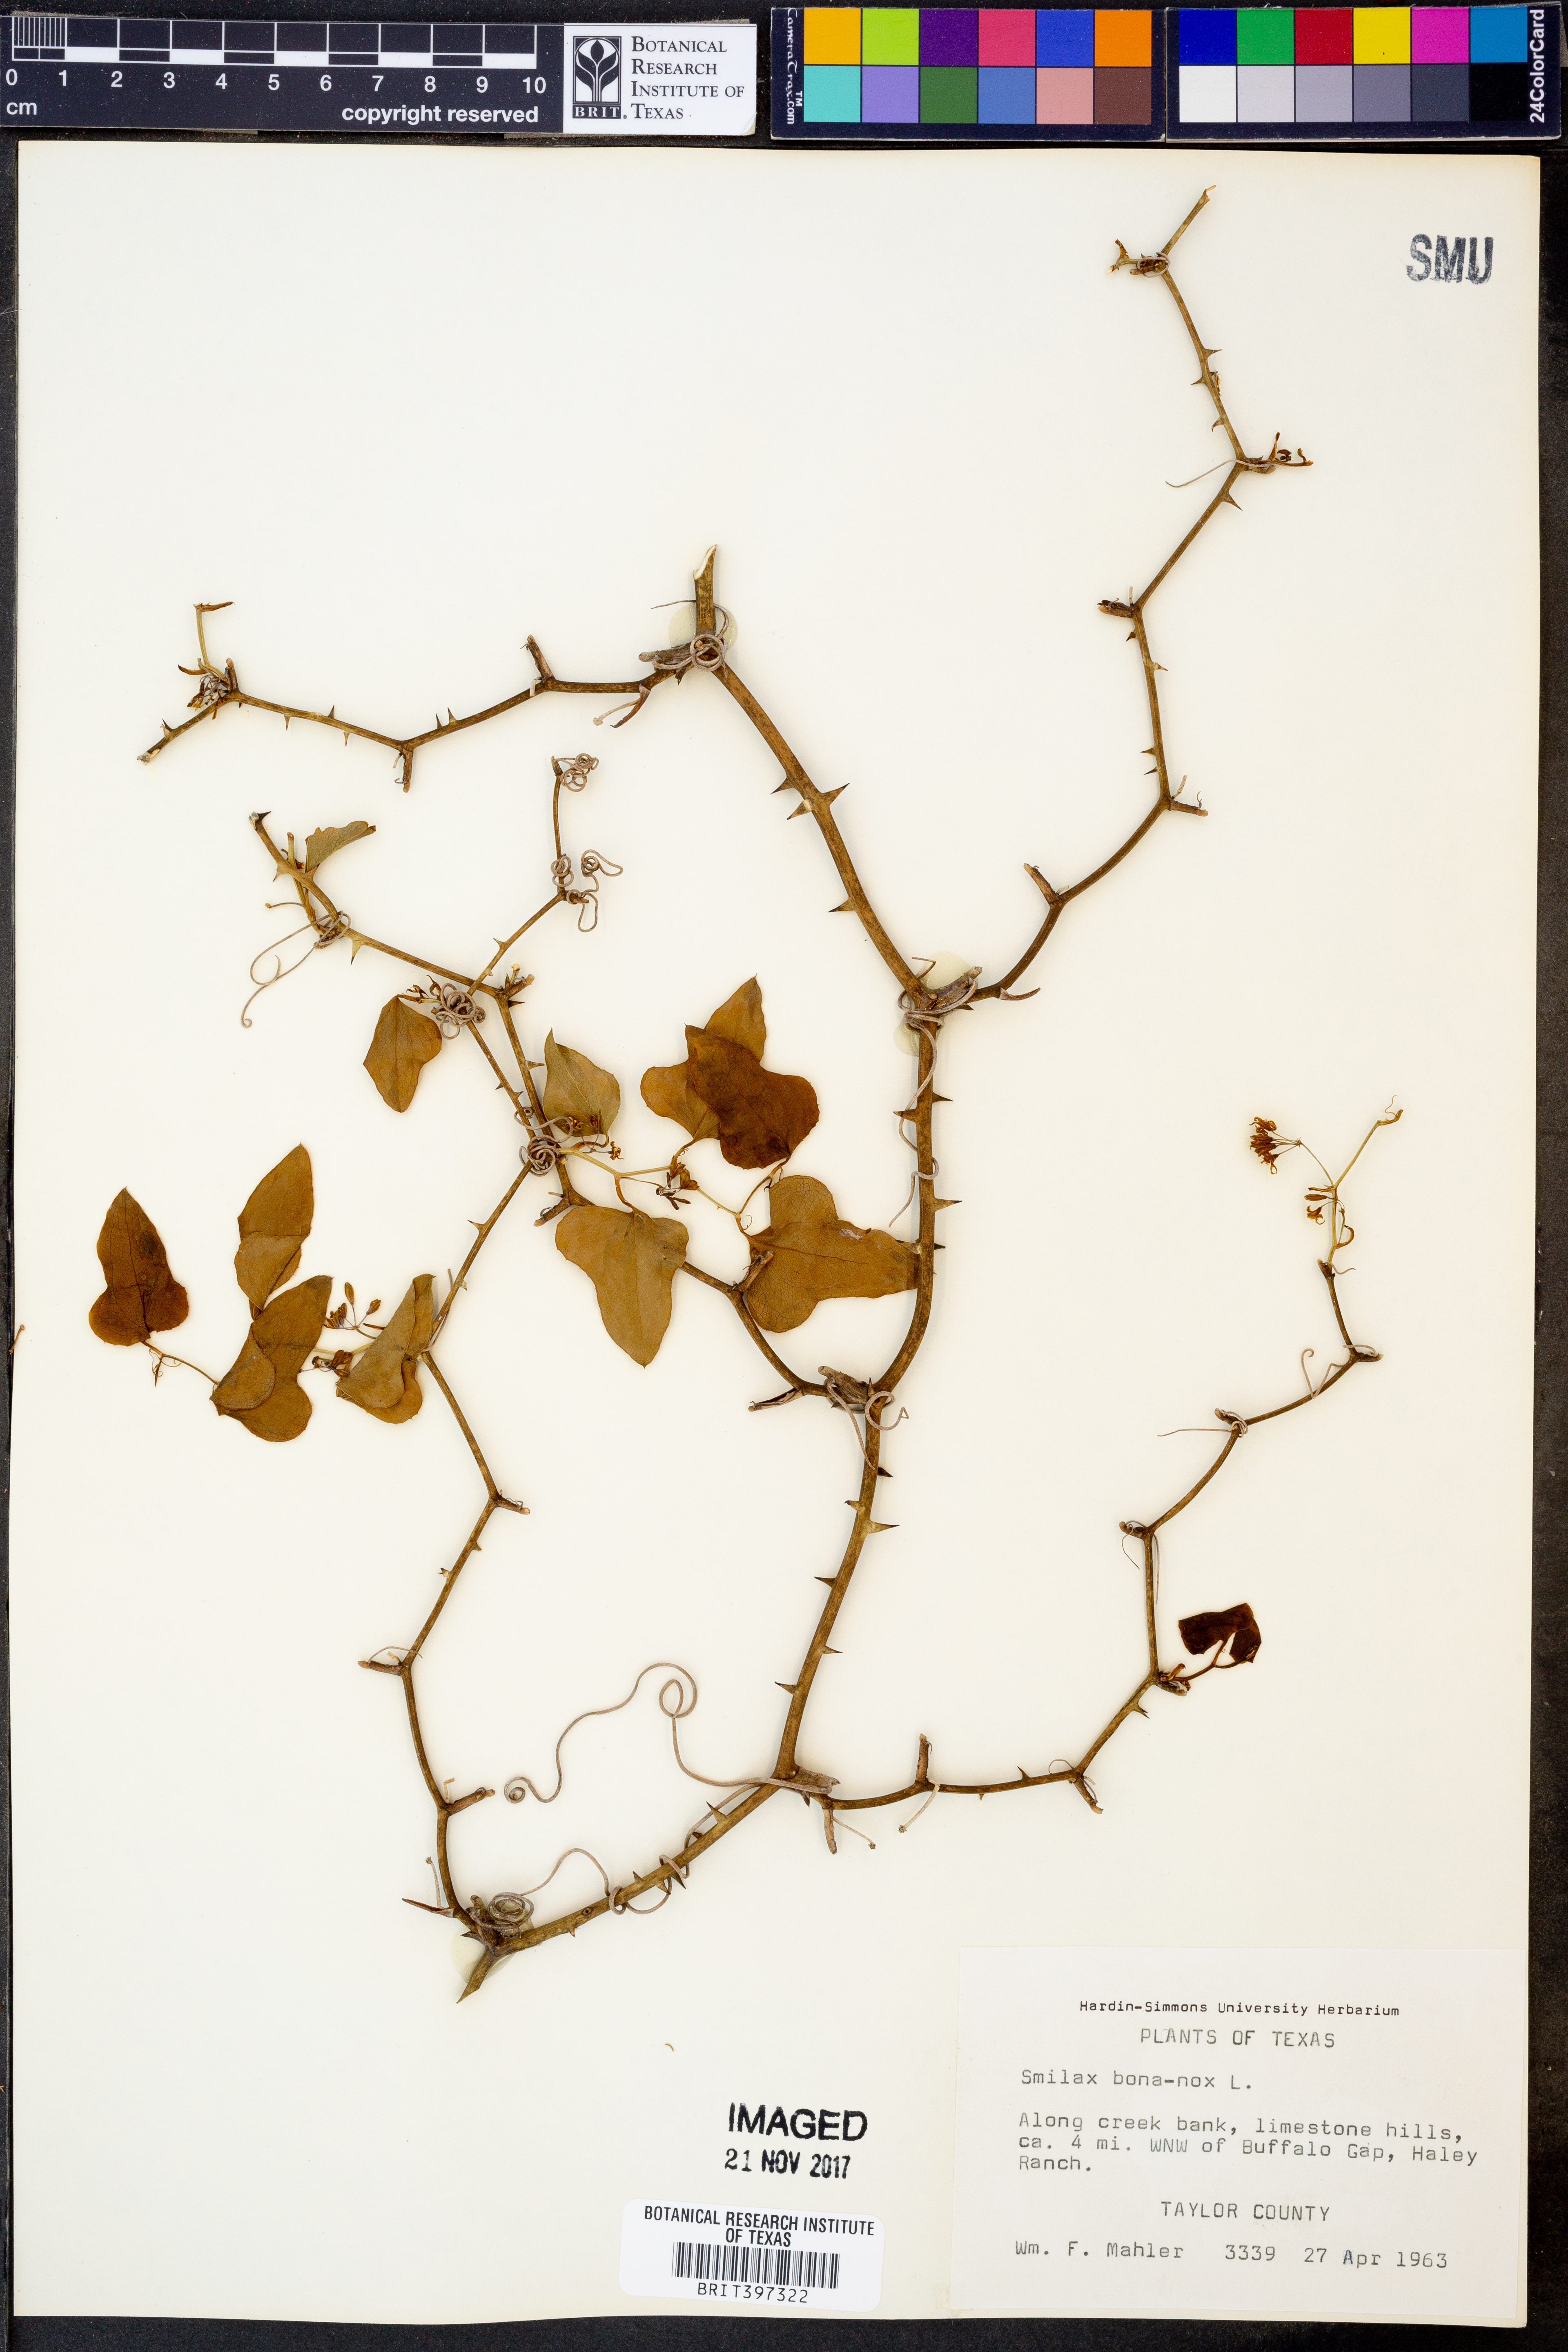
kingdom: Plantae
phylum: Tracheophyta
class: Liliopsida
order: Liliales
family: Smilacaceae
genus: Smilax
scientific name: Smilax bona-nox
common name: Catbrier
